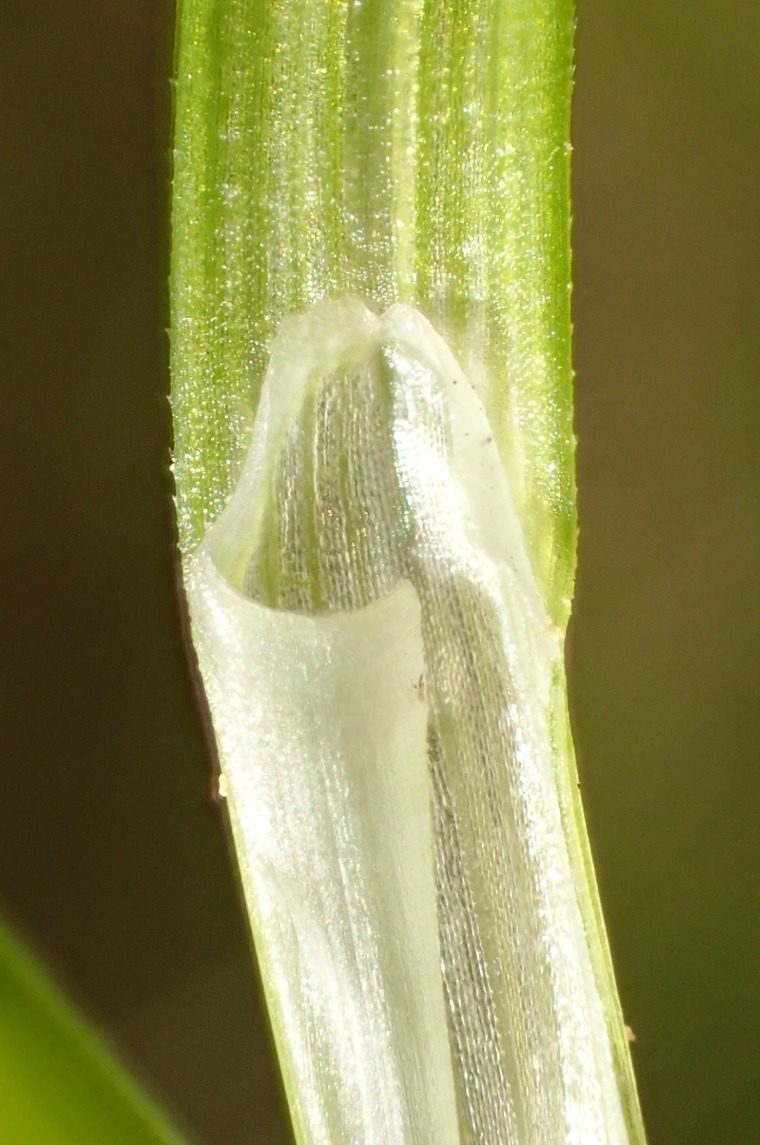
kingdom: Plantae
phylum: Tracheophyta
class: Liliopsida
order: Poales
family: Cyperaceae
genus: Carex
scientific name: Carex echinata
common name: Stjerne-star
